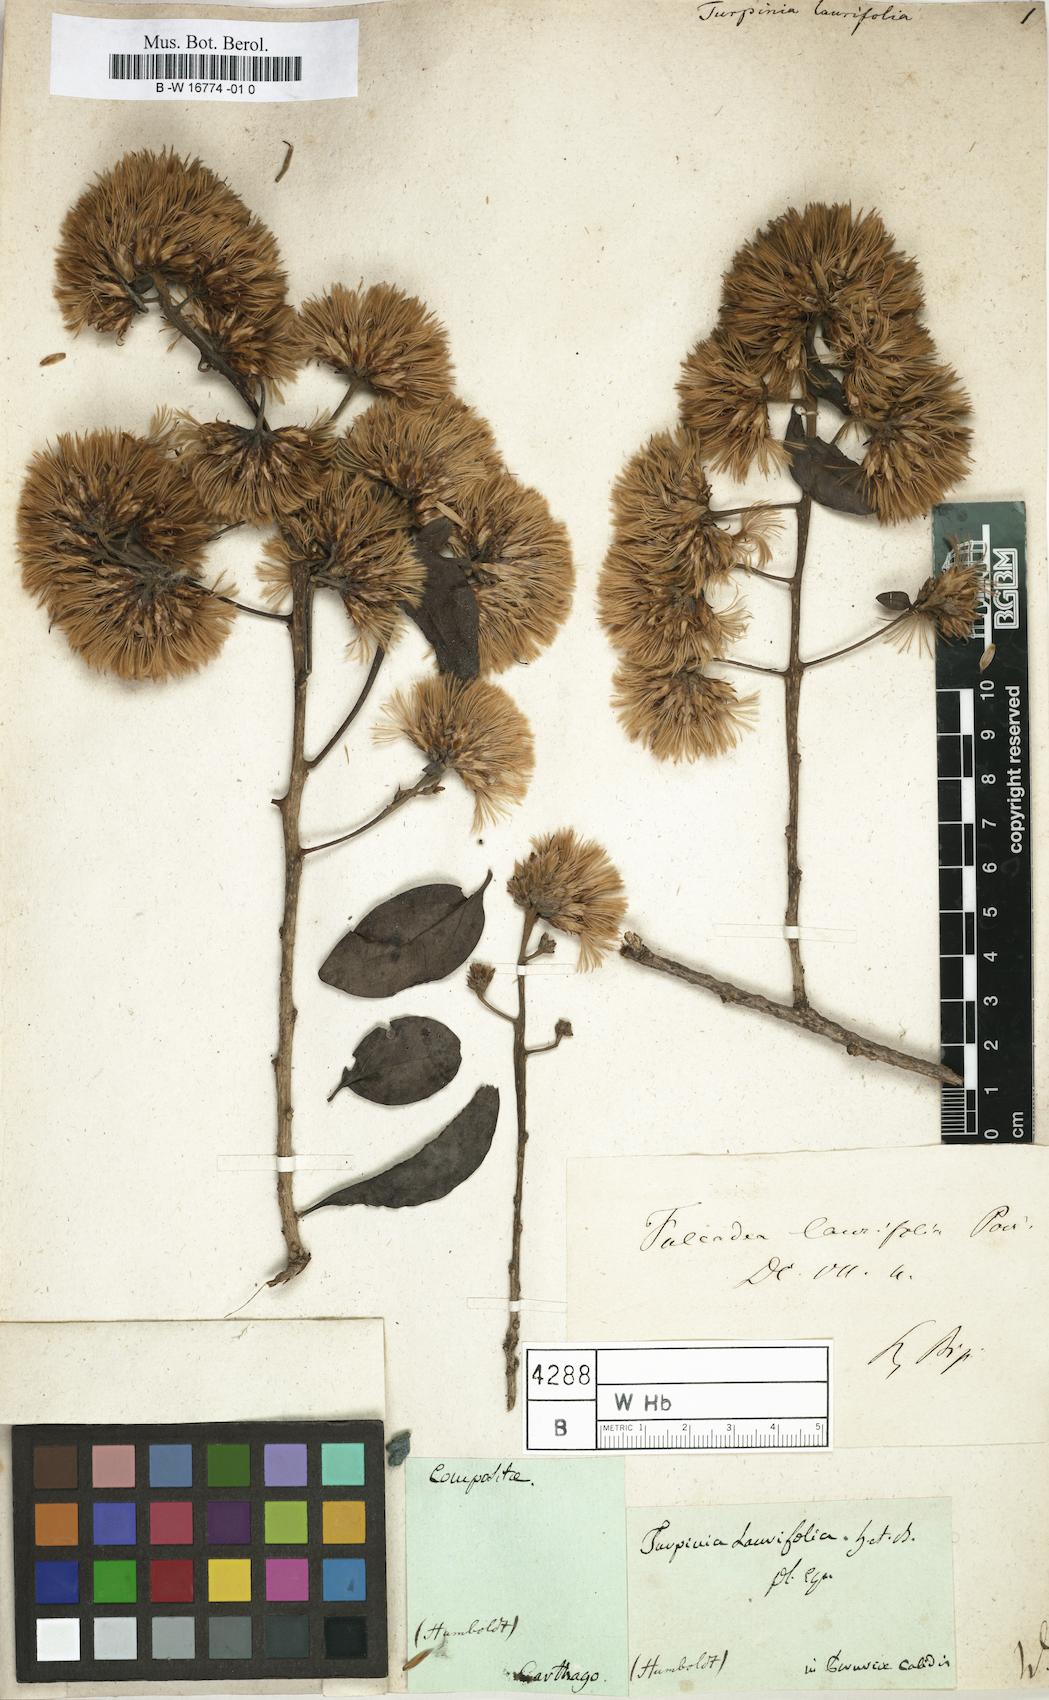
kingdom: Plantae
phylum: Tracheophyta
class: Magnoliopsida
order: Asterales
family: Asteraceae
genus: Fulcaldea
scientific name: Fulcaldea laurifolia
